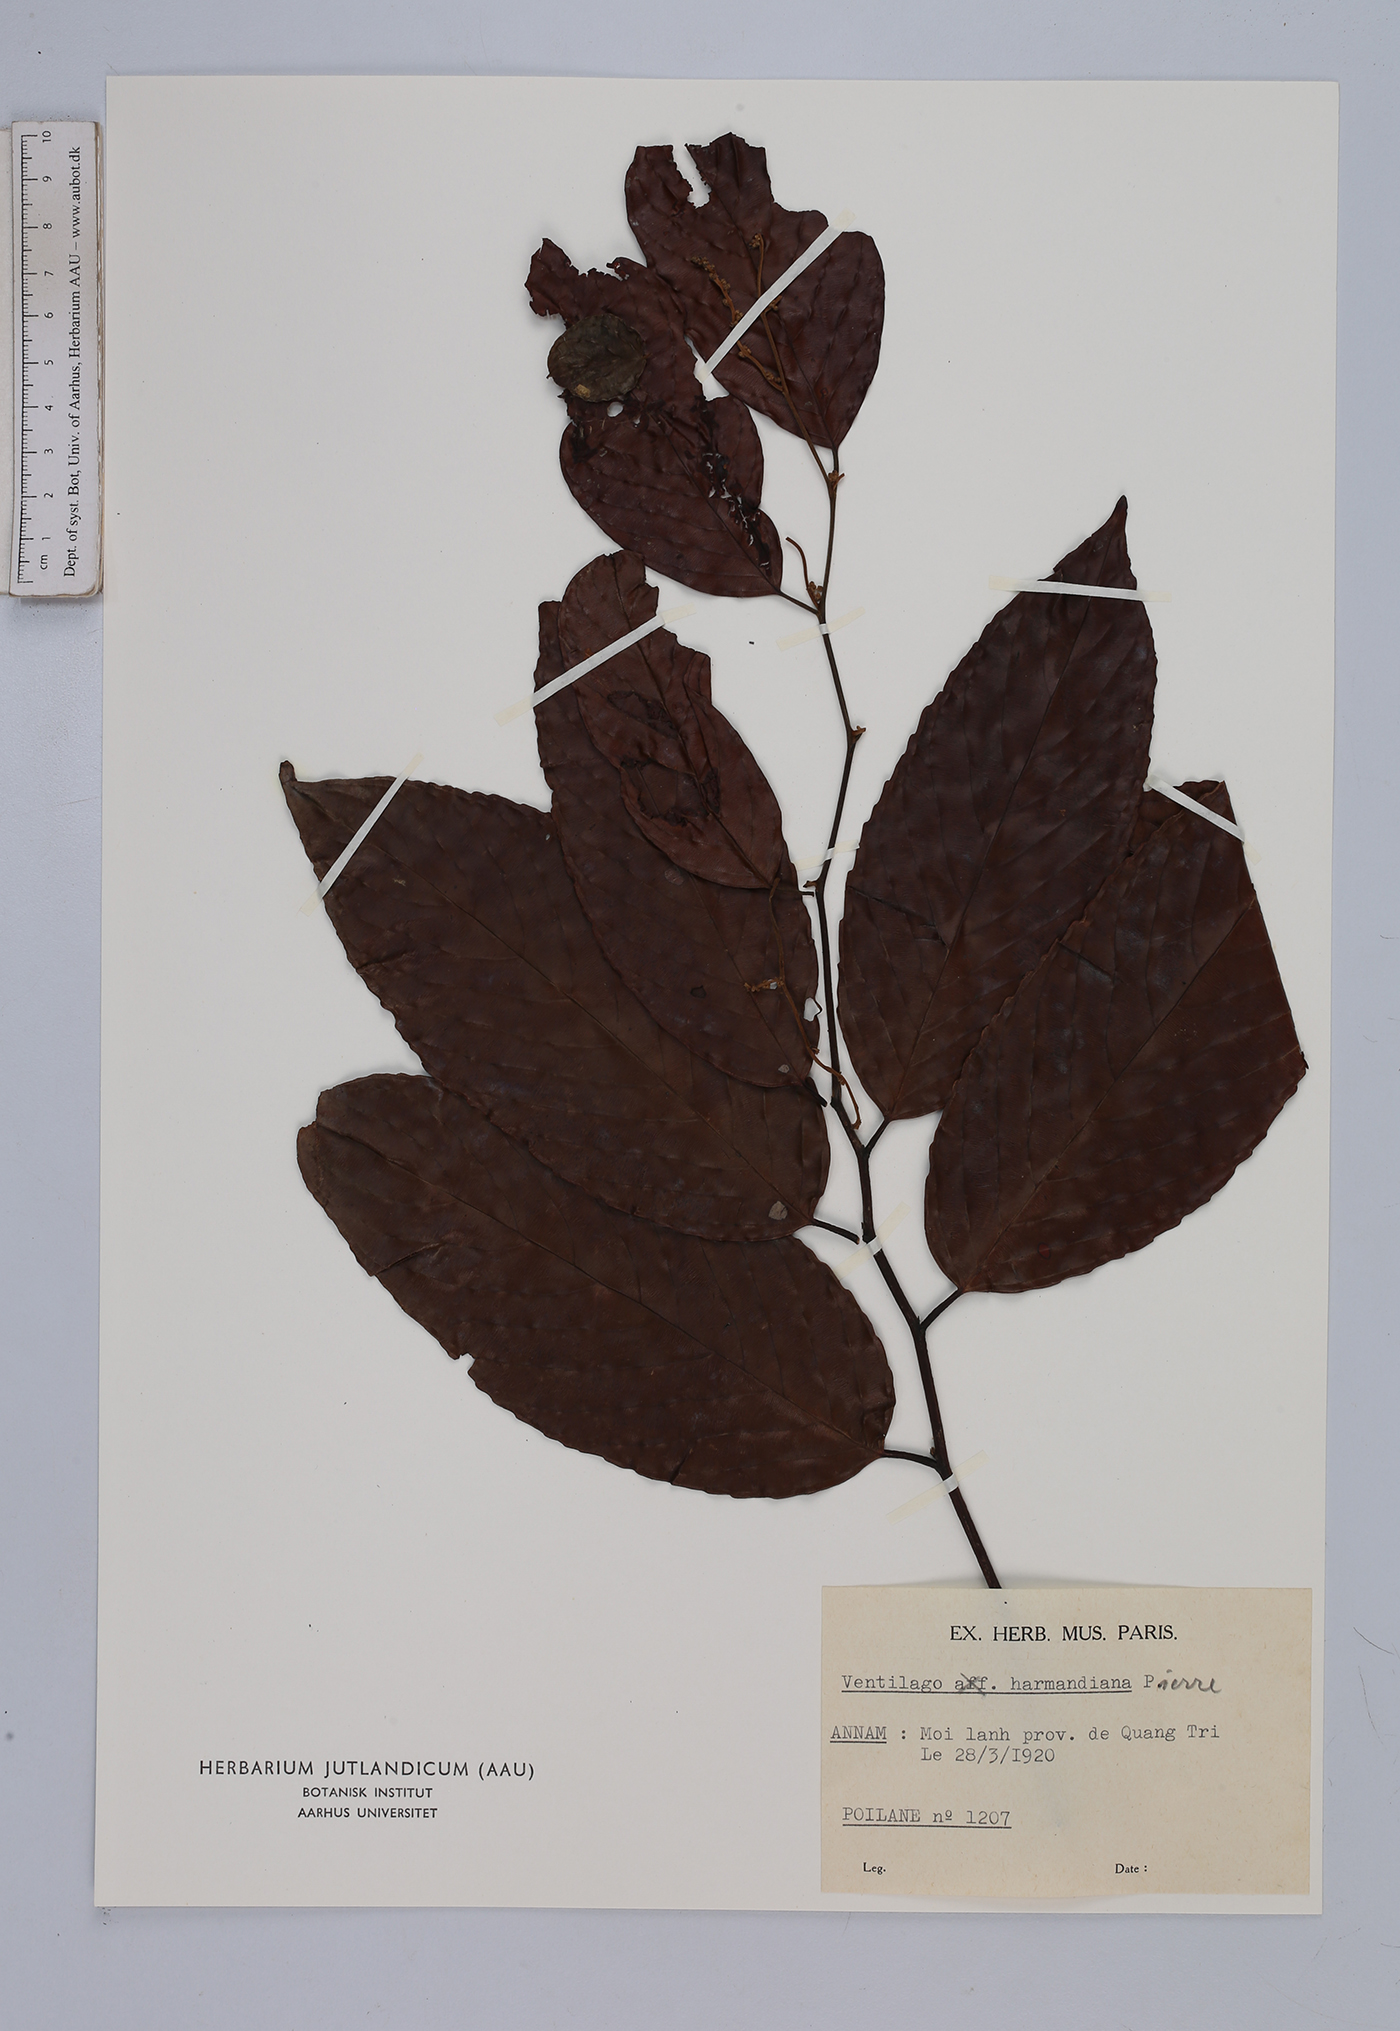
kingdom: Plantae
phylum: Tracheophyta
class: Magnoliopsida
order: Rosales
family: Rhamnaceae
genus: Ventilago
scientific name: Ventilago harmandiana
